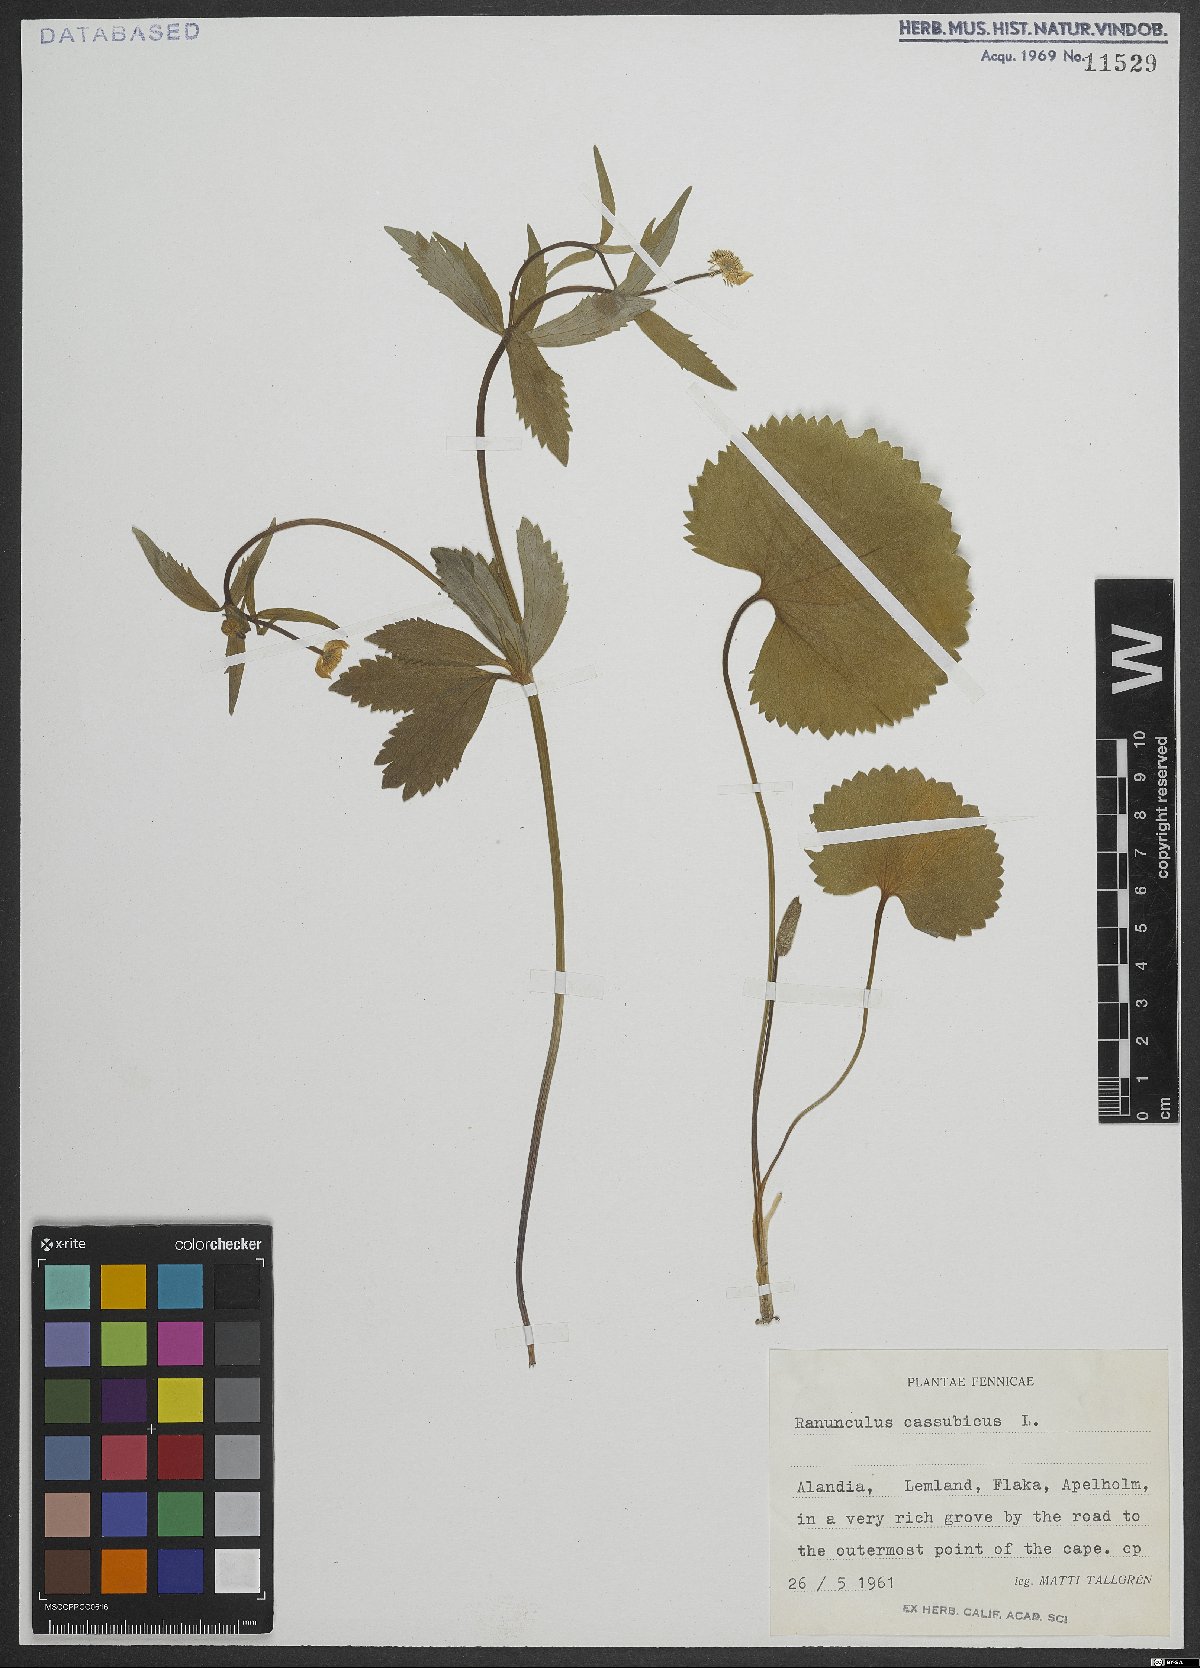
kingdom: Plantae
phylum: Tracheophyta
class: Magnoliopsida
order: Ranunculales
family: Ranunculaceae
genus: Ranunculus
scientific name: Ranunculus cassubicus
